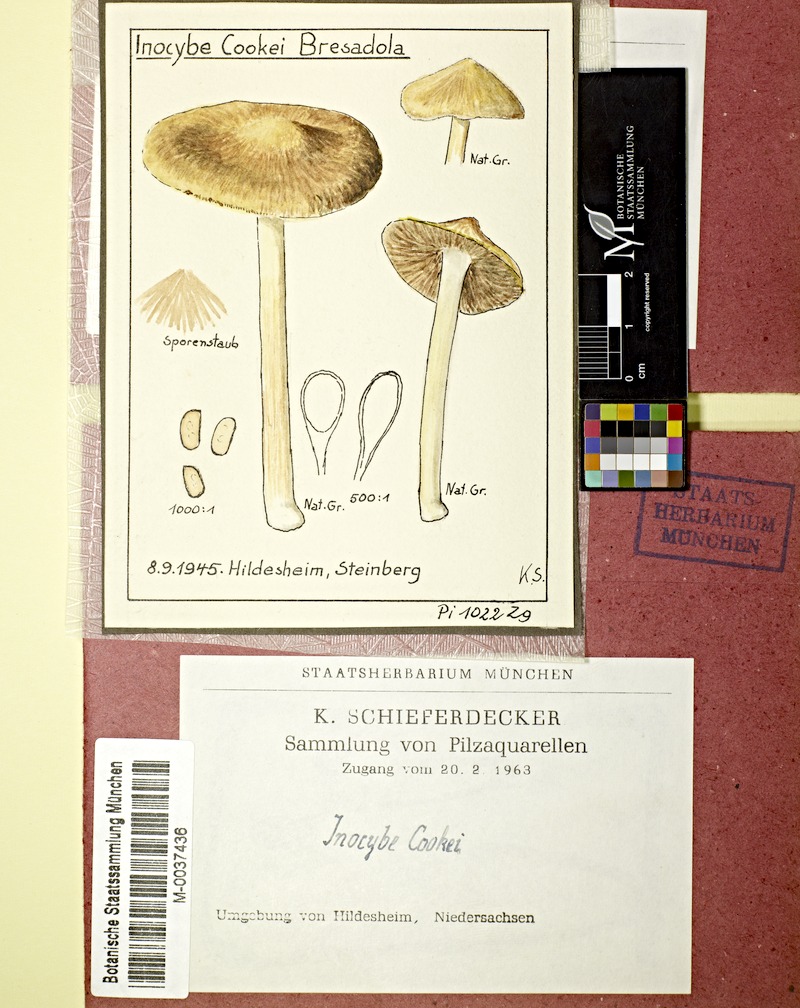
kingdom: Fungi
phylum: Basidiomycota
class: Agaricomycetes
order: Agaricales
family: Inocybaceae
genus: Inosperma
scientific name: Inosperma cookei
